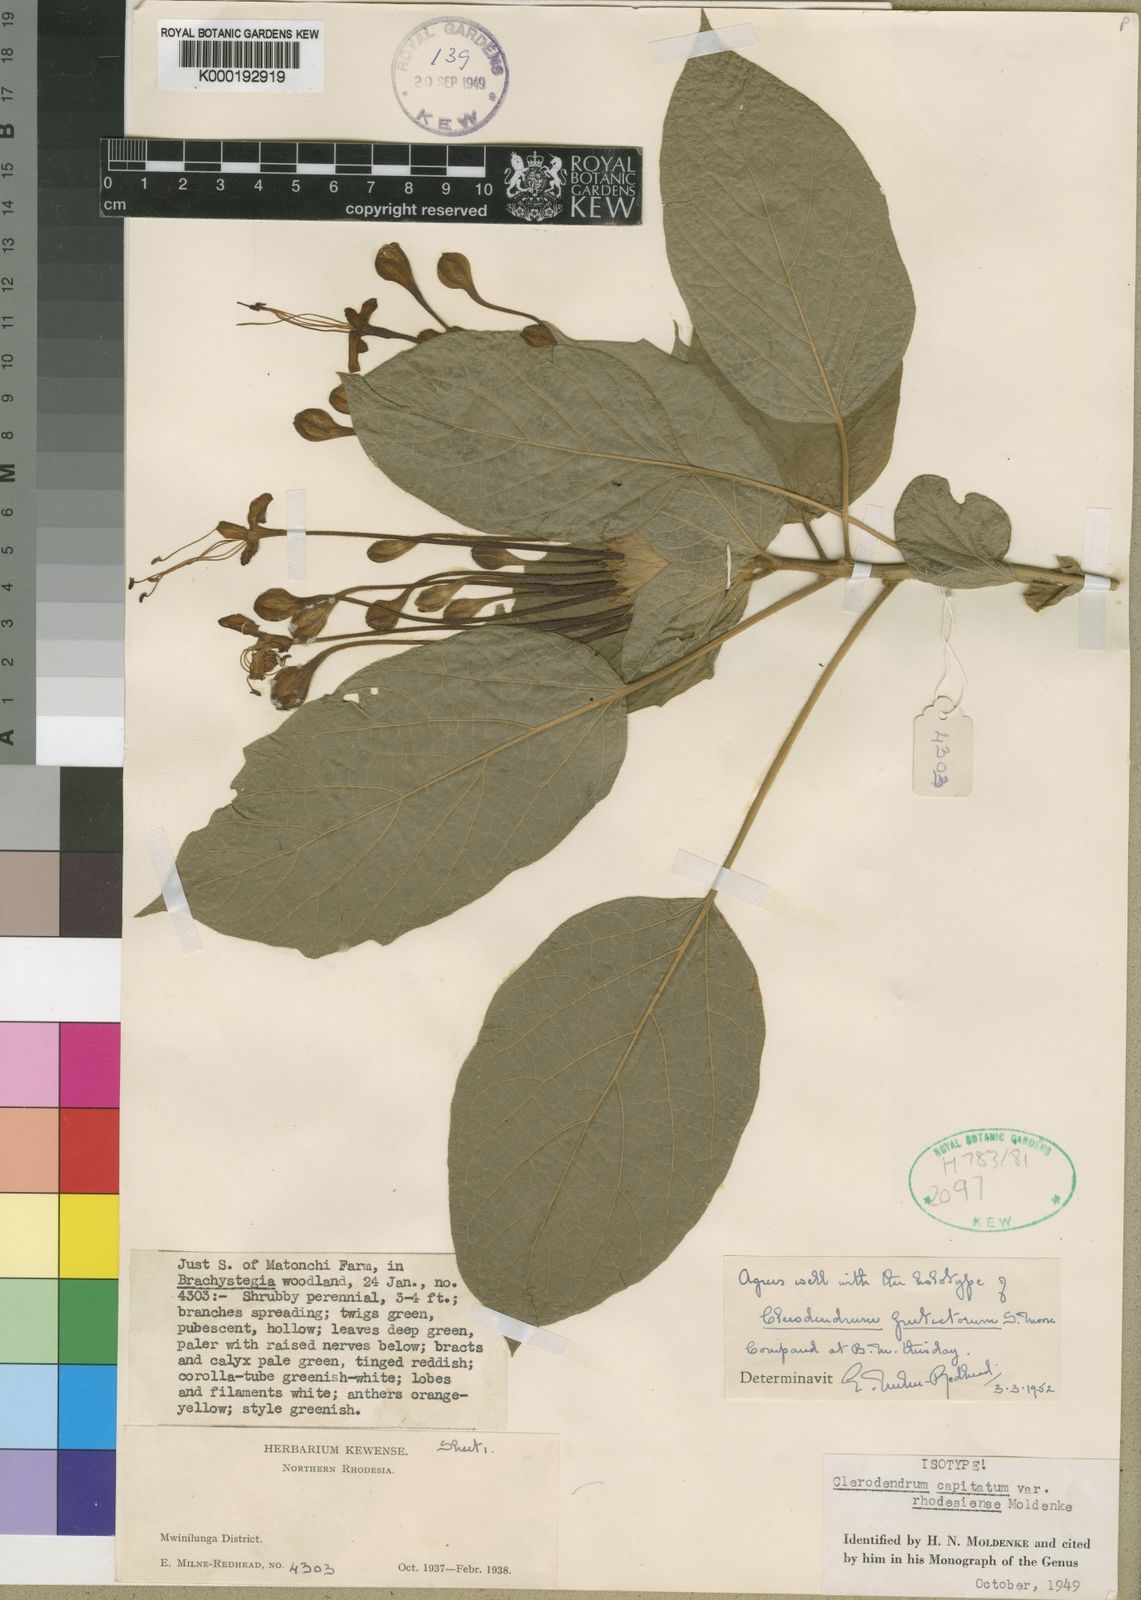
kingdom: Plantae
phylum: Tracheophyta
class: Magnoliopsida
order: Lamiales
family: Lamiaceae
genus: Clerodendrum
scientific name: Clerodendrum
